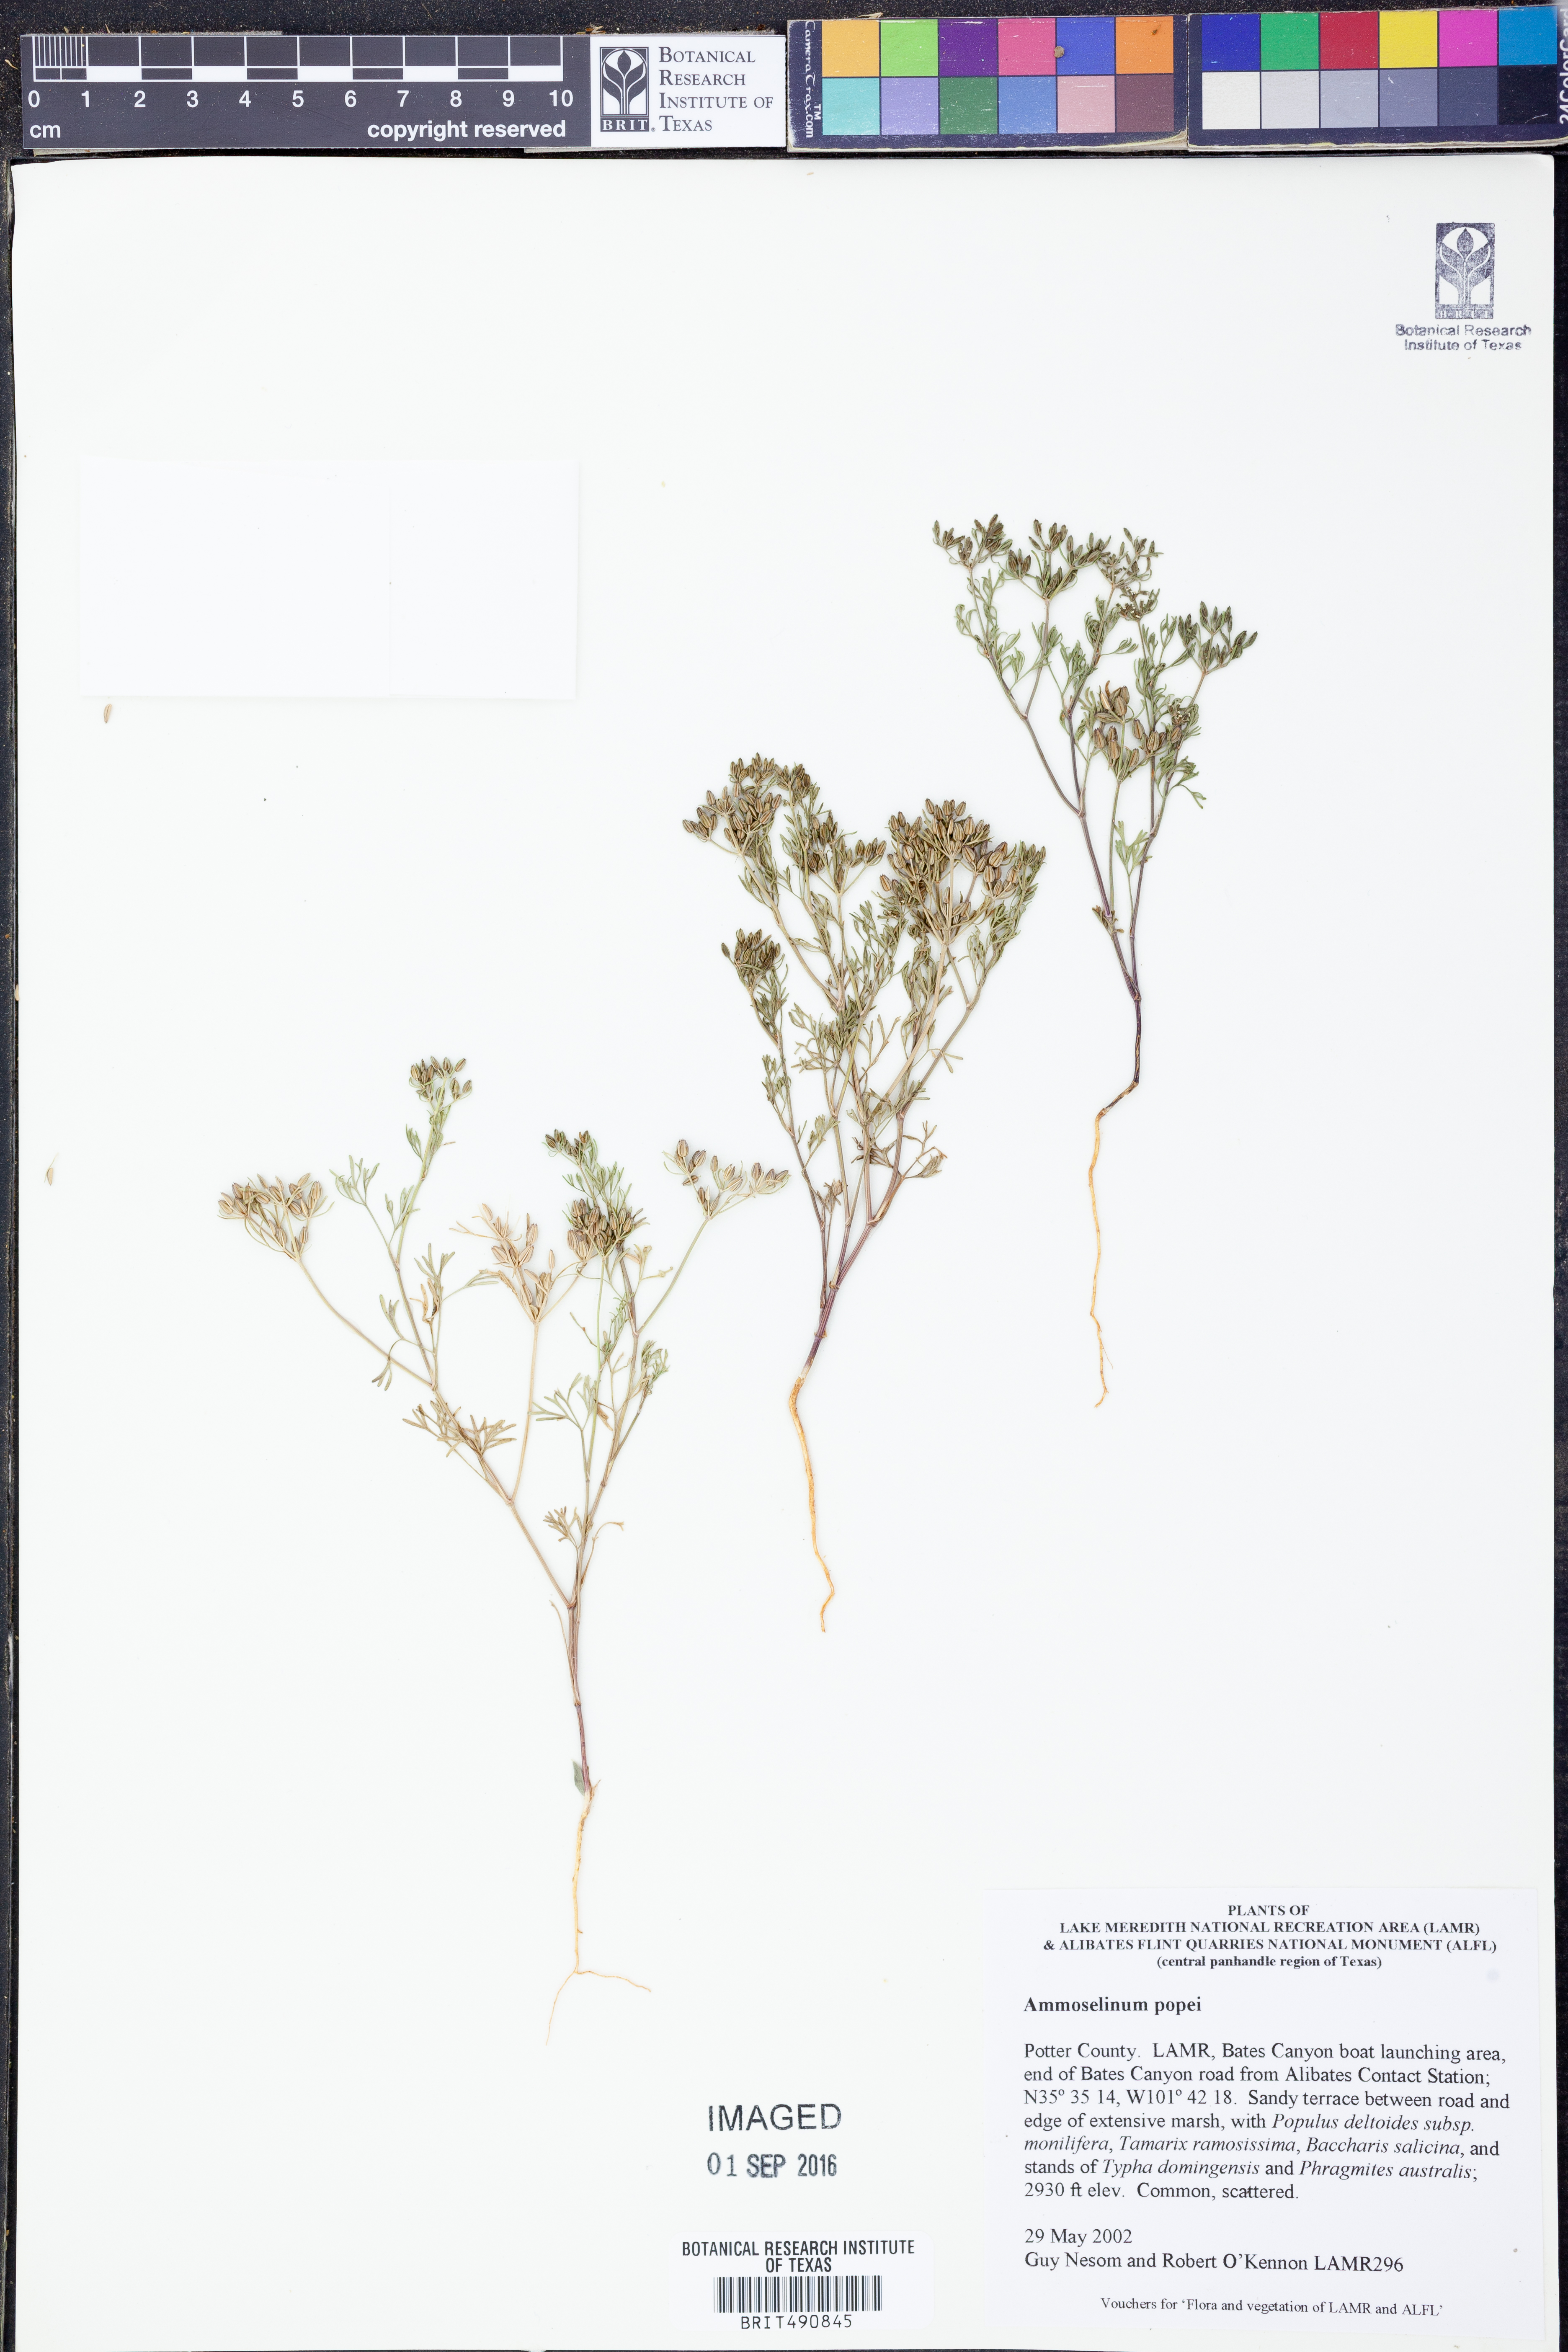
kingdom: Plantae
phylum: Tracheophyta
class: Magnoliopsida
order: Apiales
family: Apiaceae
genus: Ammoselinum
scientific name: Ammoselinum popei
